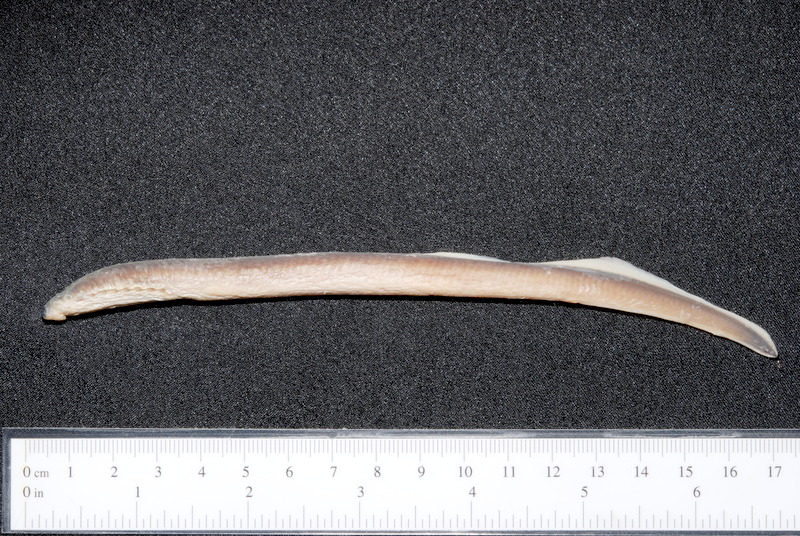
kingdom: Animalia
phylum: Chordata
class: Petromyzonti
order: Petromyzontiformes
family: Petromyzontidae
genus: Eudontomyzon
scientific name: Eudontomyzon vladykovi
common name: Vladykov's lamprey
